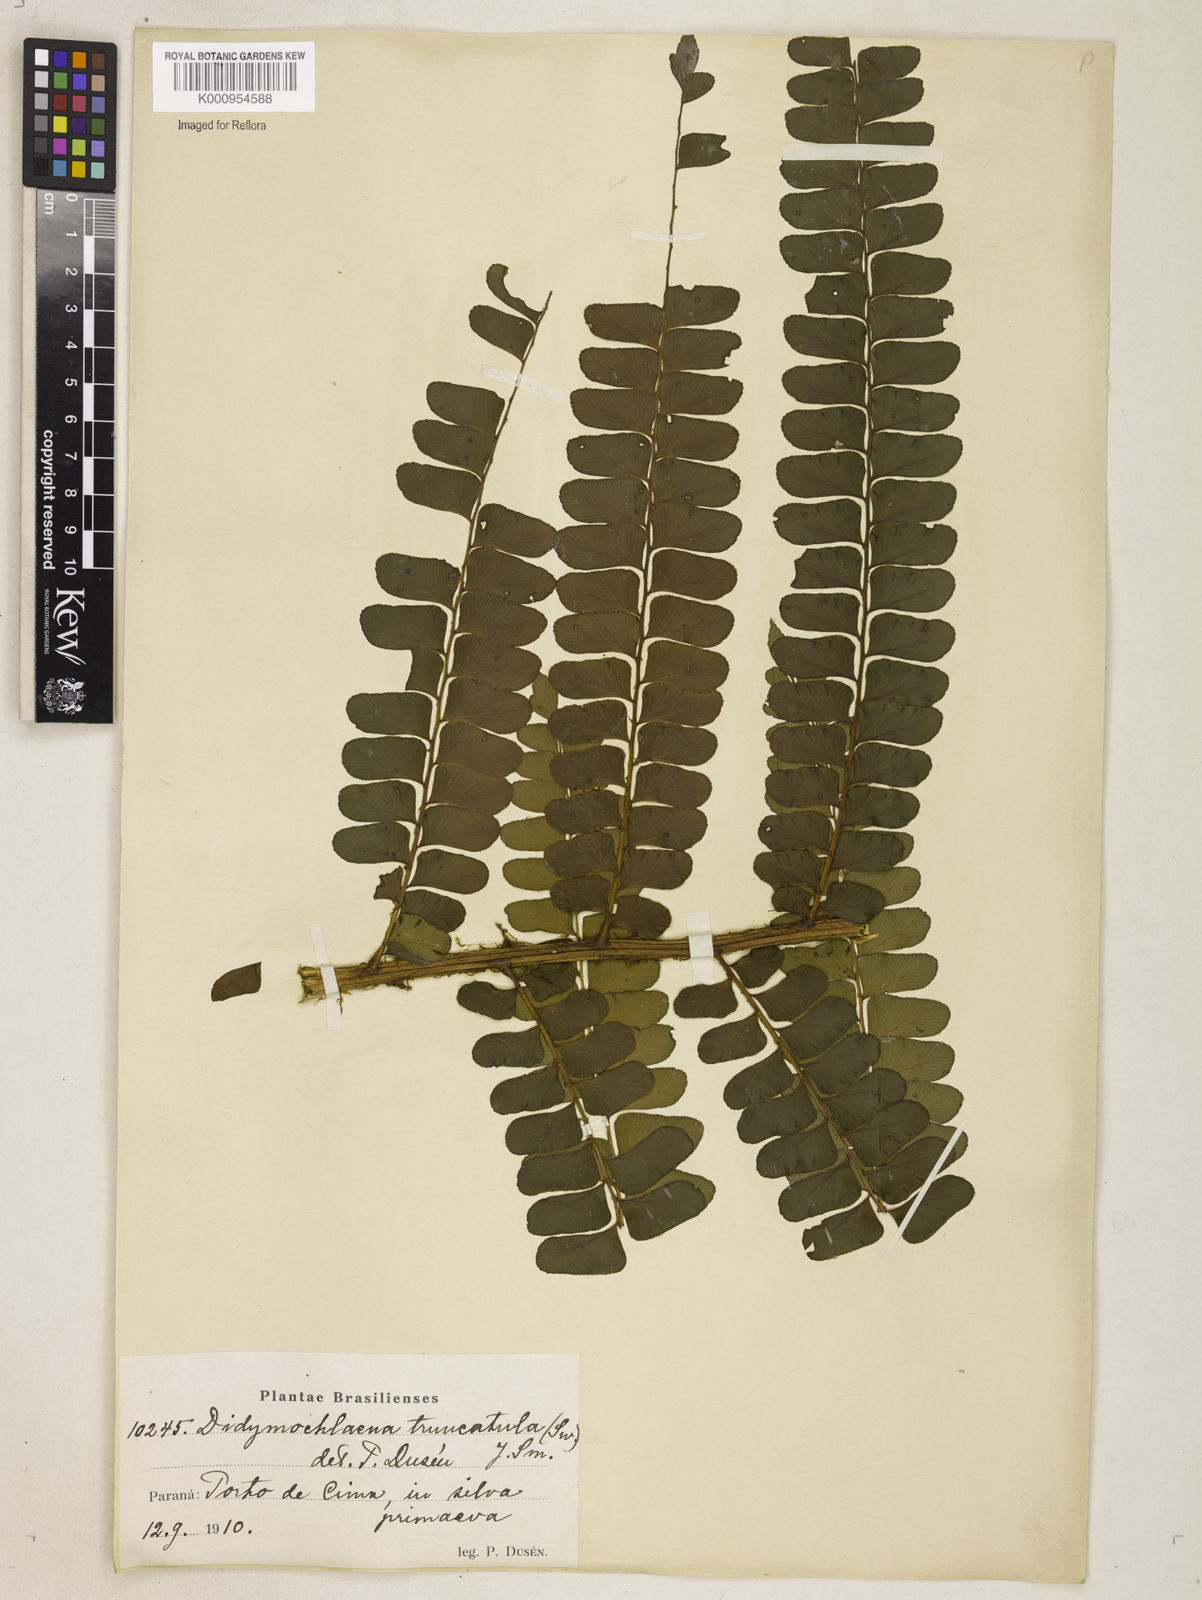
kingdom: Plantae
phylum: Tracheophyta
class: Polypodiopsida
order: Polypodiales
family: Didymochlaenaceae
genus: Didymochlaena
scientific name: Didymochlaena truncatula
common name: Mahogany fern
